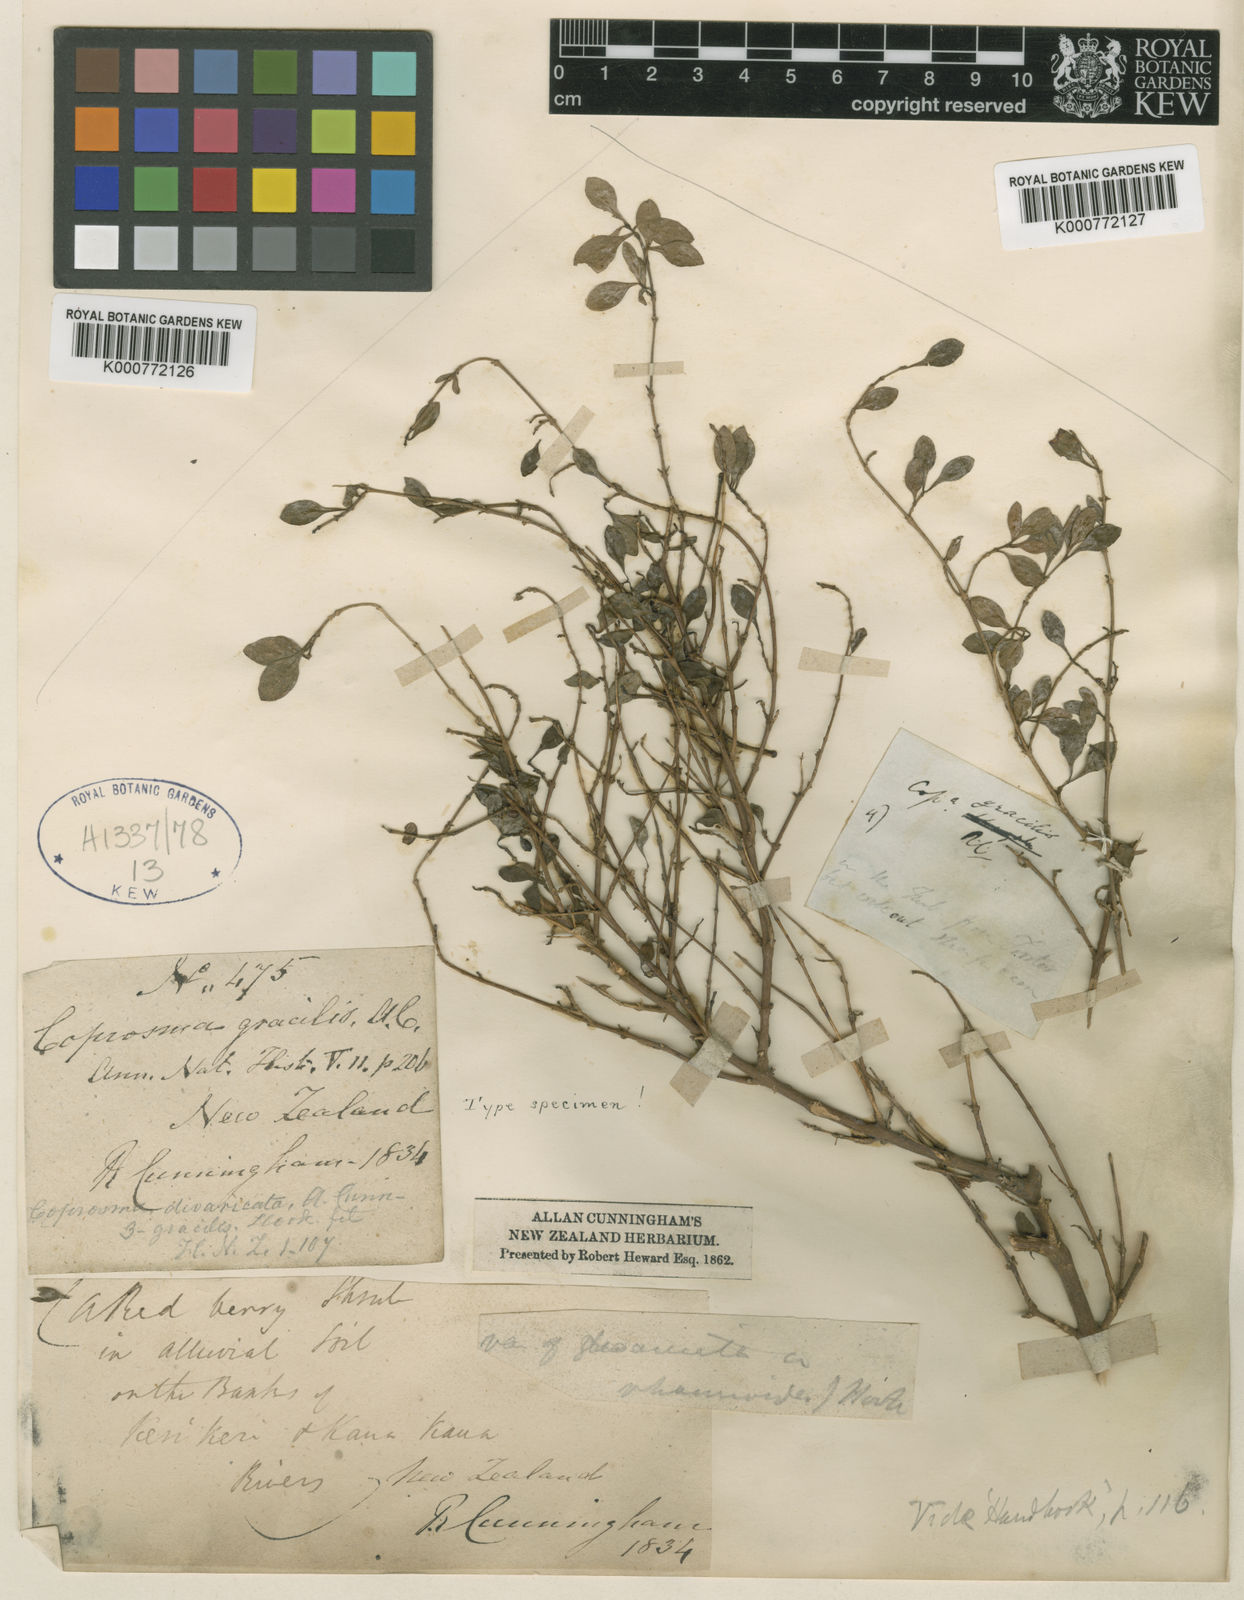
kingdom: Plantae
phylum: Tracheophyta
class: Magnoliopsida
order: Gentianales
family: Rubiaceae
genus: Coprosma
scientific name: Coprosma rhamnoides
